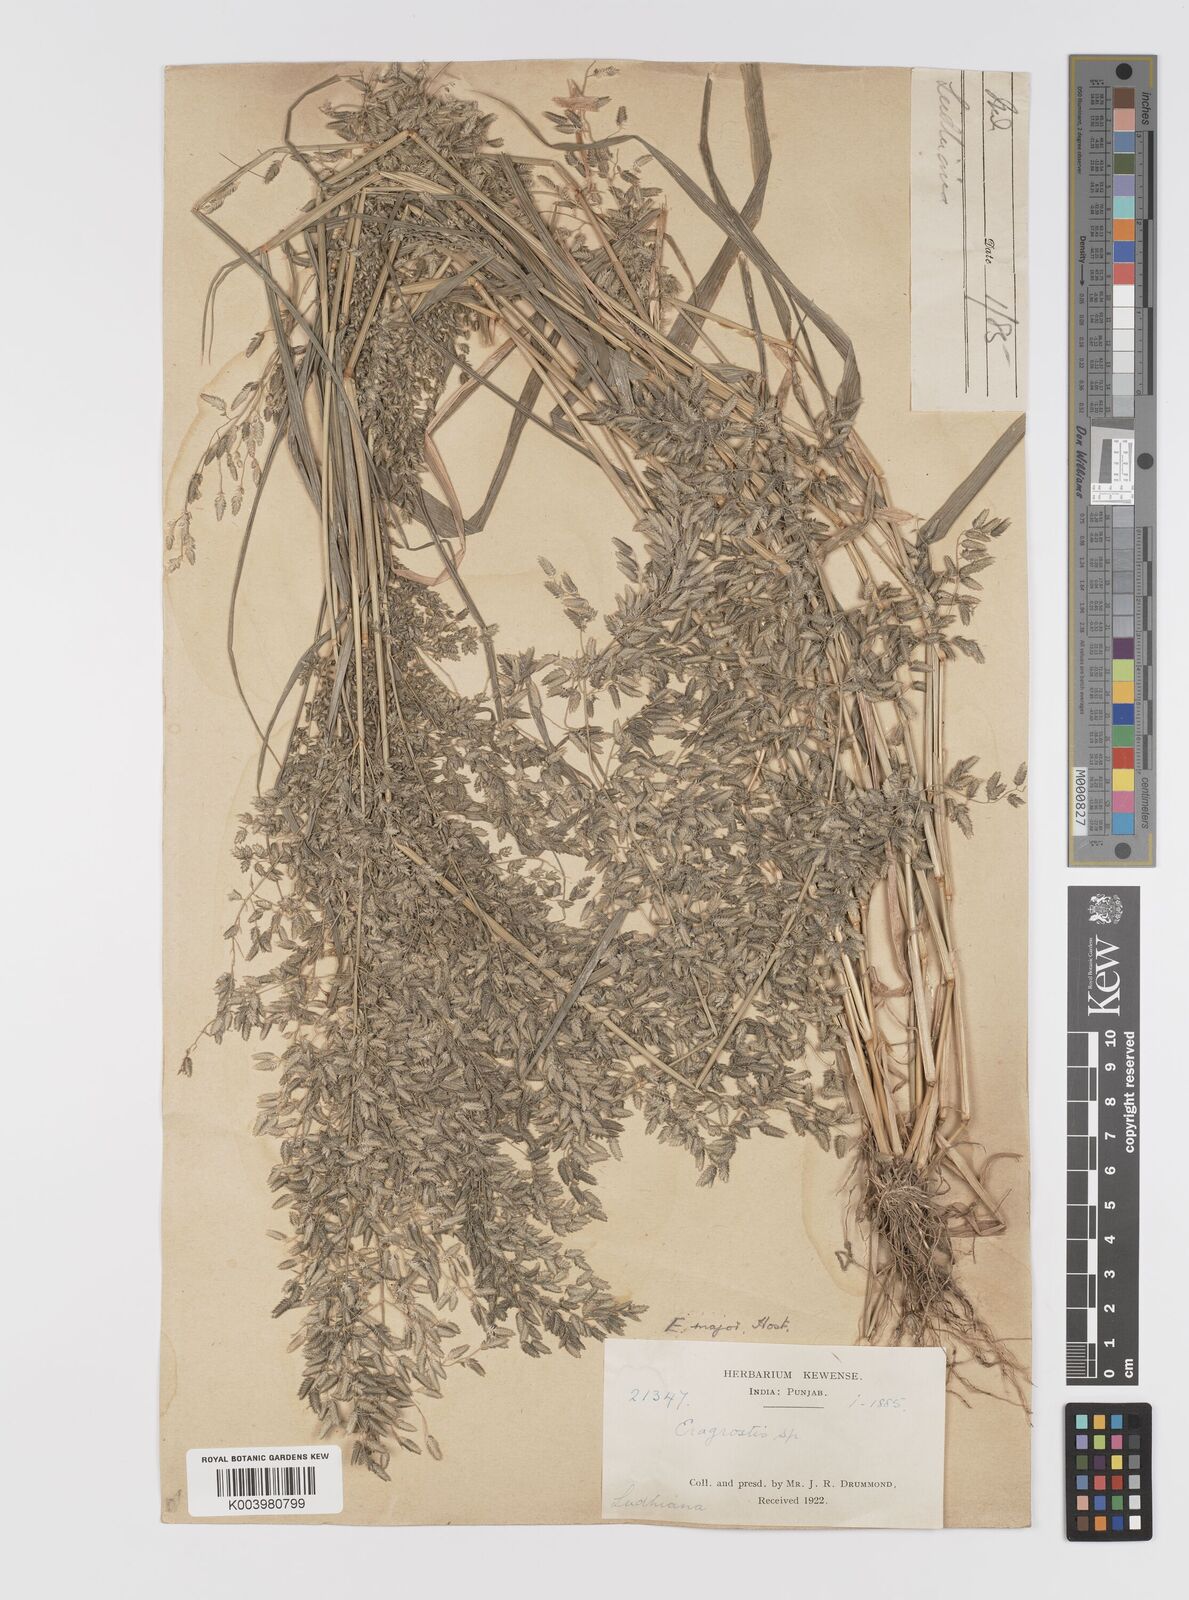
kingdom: Plantae
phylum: Tracheophyta
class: Liliopsida
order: Poales
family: Poaceae
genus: Eragrostis
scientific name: Eragrostis cilianensis
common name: Stinkgrass
